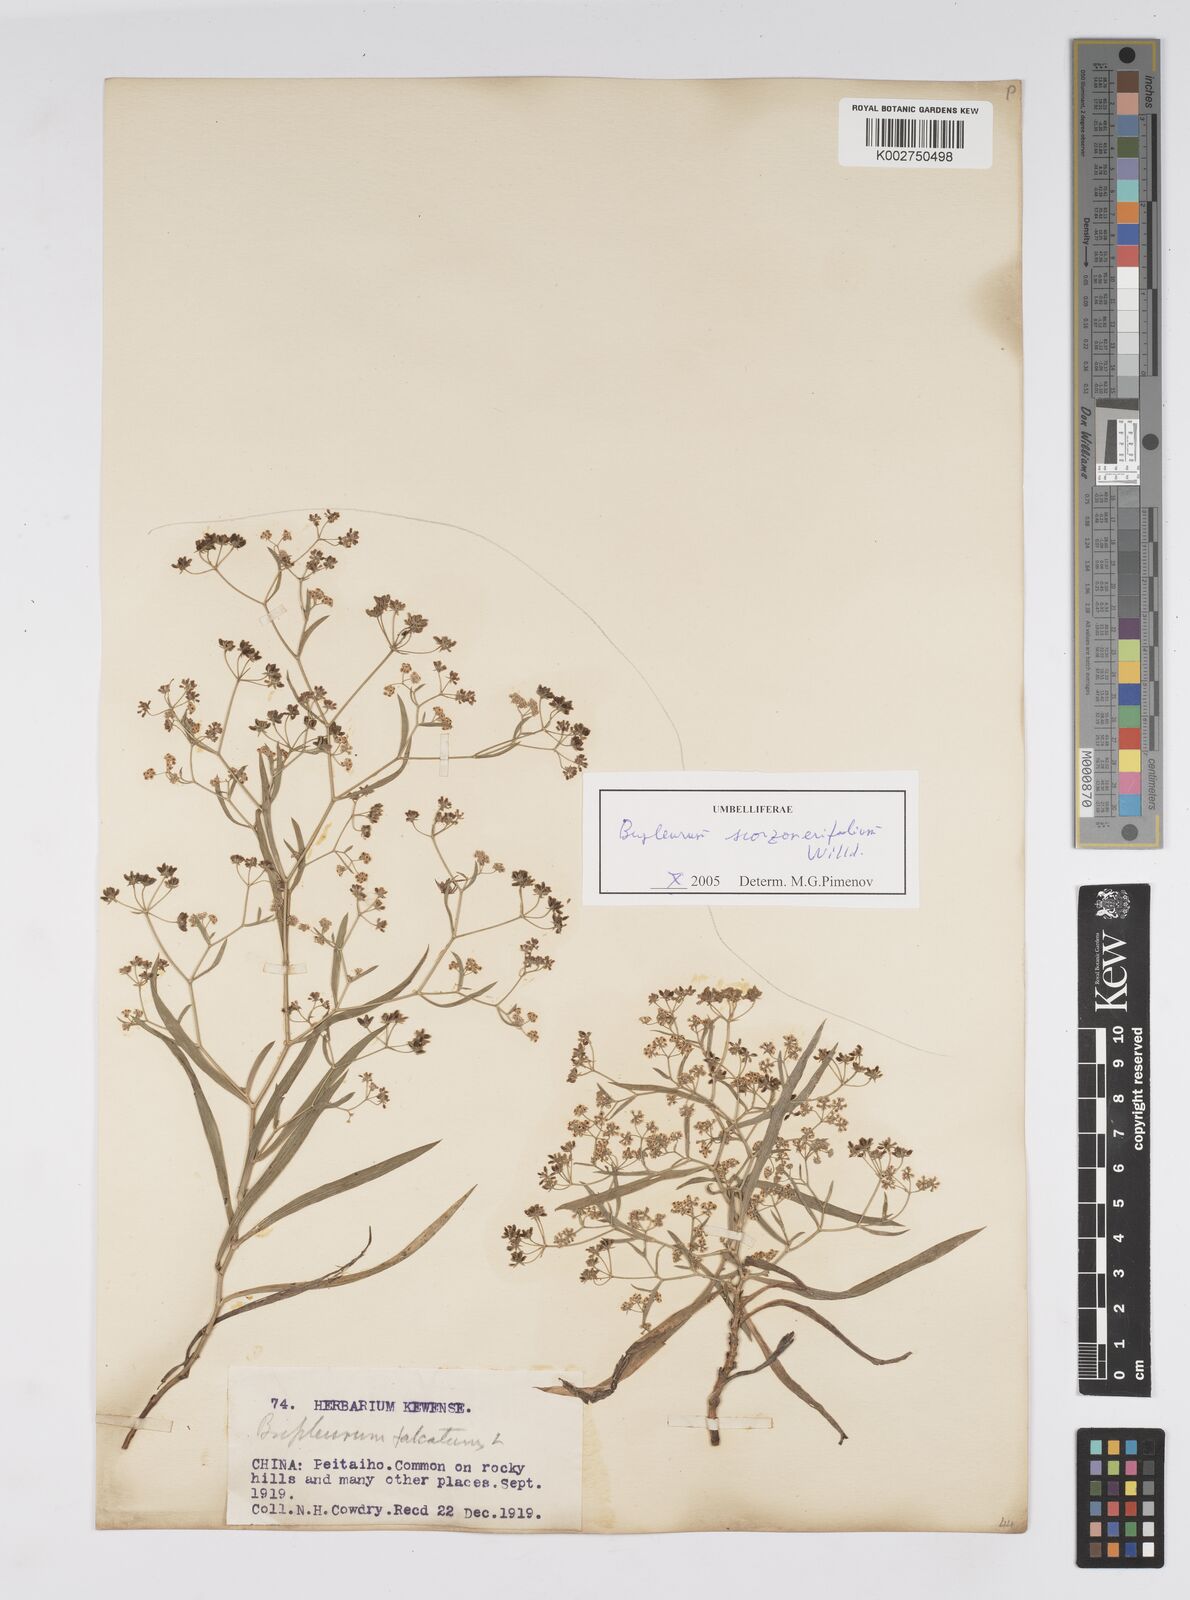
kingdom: Plantae
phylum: Tracheophyta
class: Magnoliopsida
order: Apiales
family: Apiaceae
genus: Bupleurum
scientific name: Bupleurum krylovianum
